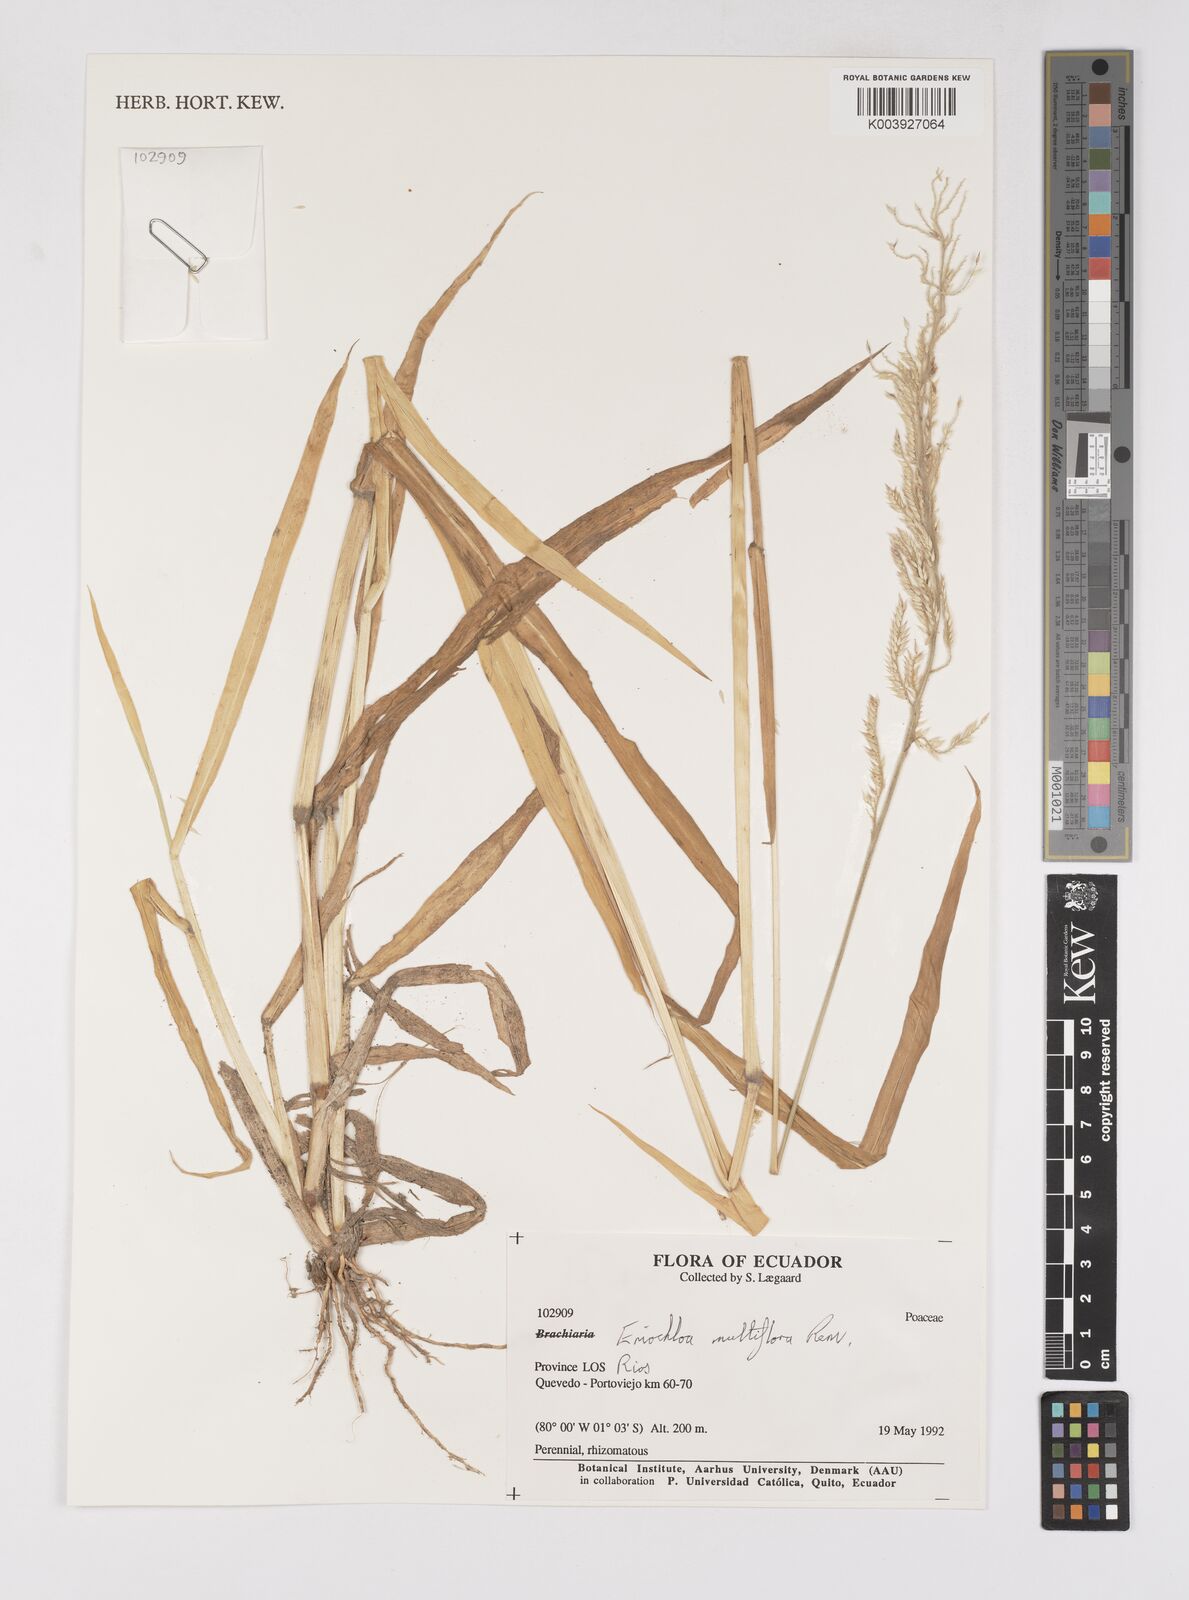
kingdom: Plantae
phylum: Tracheophyta
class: Liliopsida
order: Poales
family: Poaceae
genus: Eriochloa
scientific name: Eriochloa stevensii
